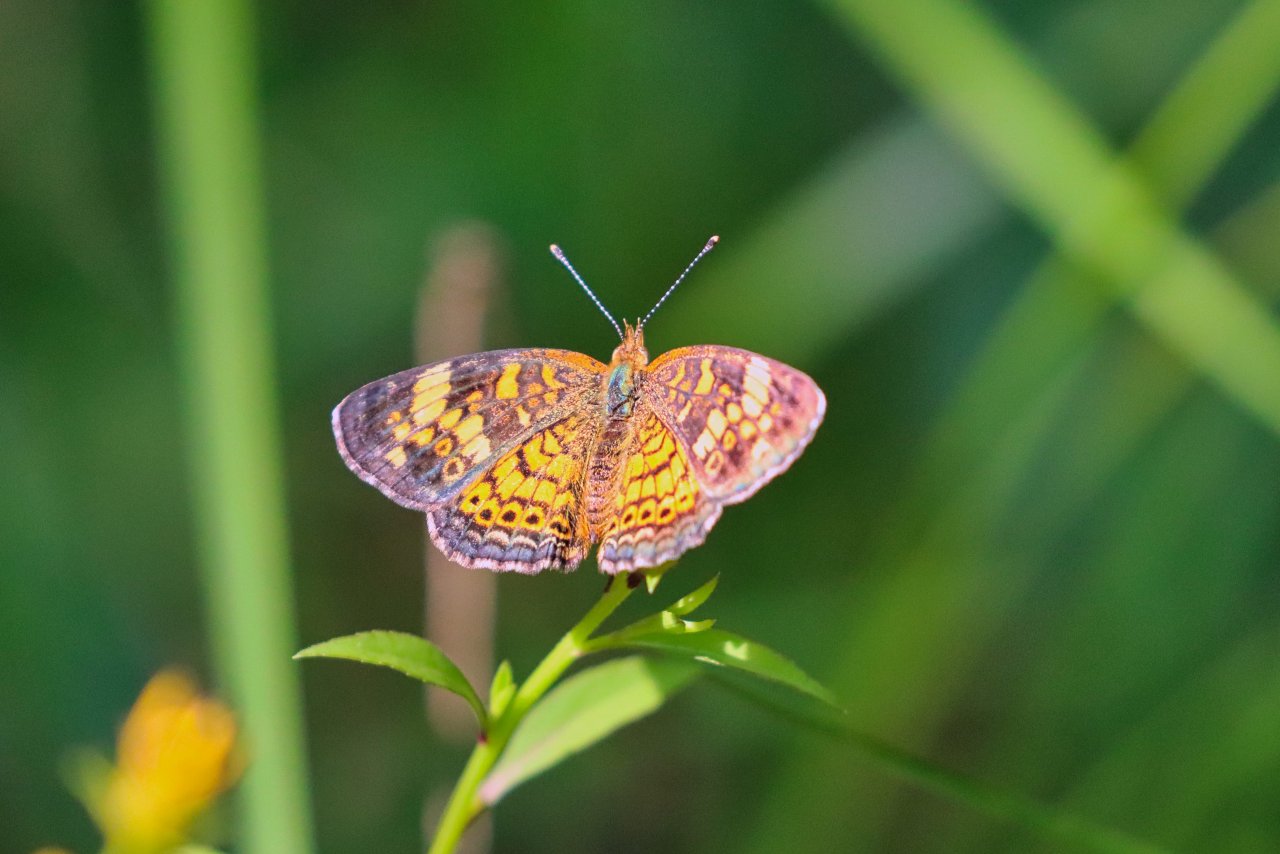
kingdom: Animalia
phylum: Arthropoda
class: Insecta
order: Lepidoptera
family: Nymphalidae
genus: Phyciodes
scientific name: Phyciodes tharos
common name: Pearl Crescent
